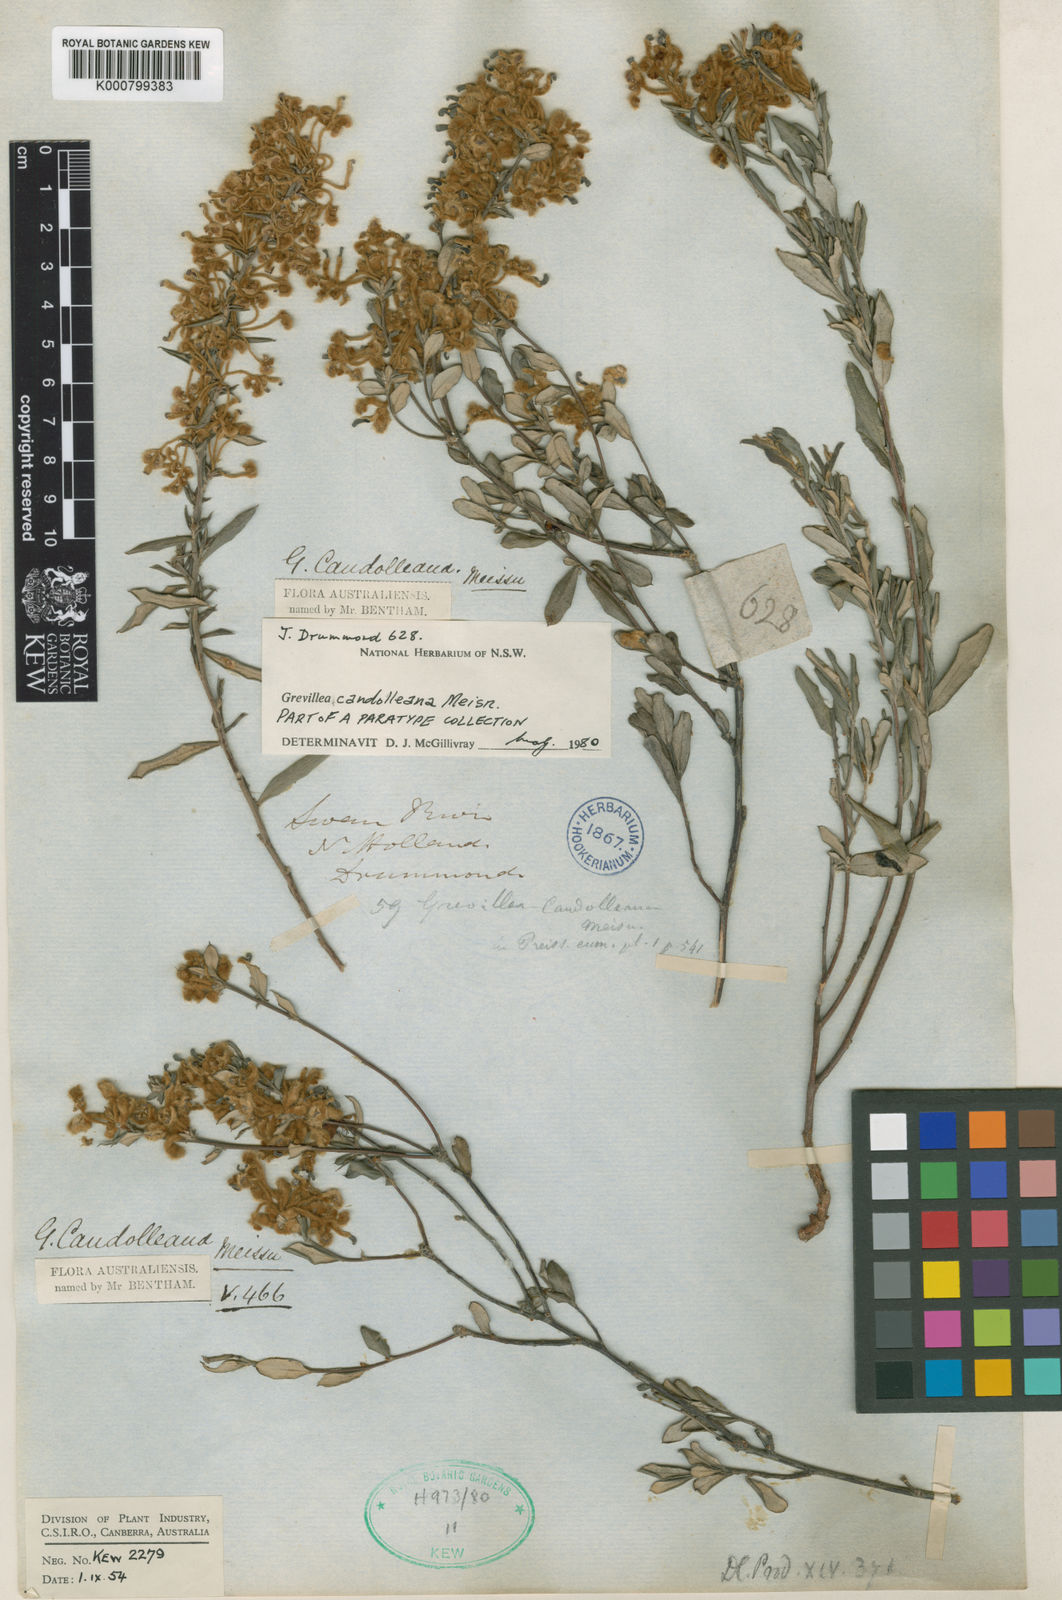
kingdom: Plantae
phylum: Tracheophyta
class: Magnoliopsida
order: Proteales
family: Proteaceae
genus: Grevillea
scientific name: Grevillea candolleana
